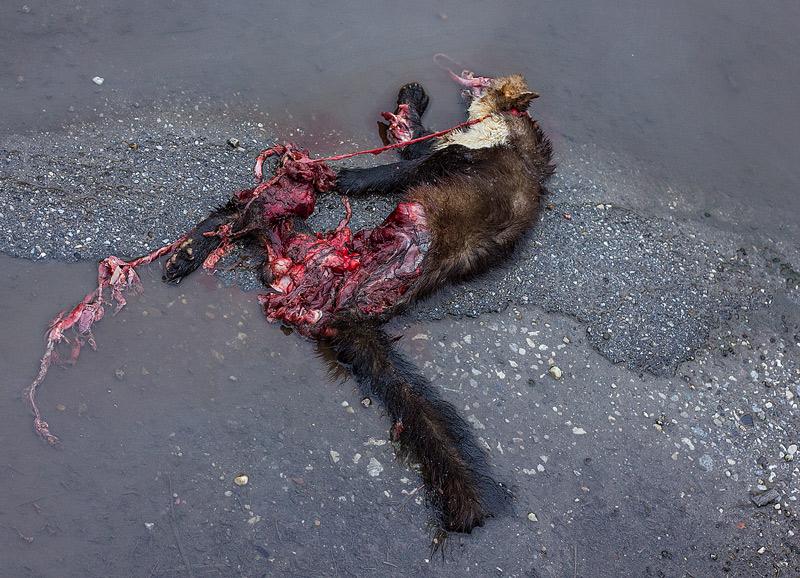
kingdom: Animalia
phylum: Chordata
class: Mammalia
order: Carnivora
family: Mustelidae
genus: Martes
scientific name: Martes foina
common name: Beech marten
